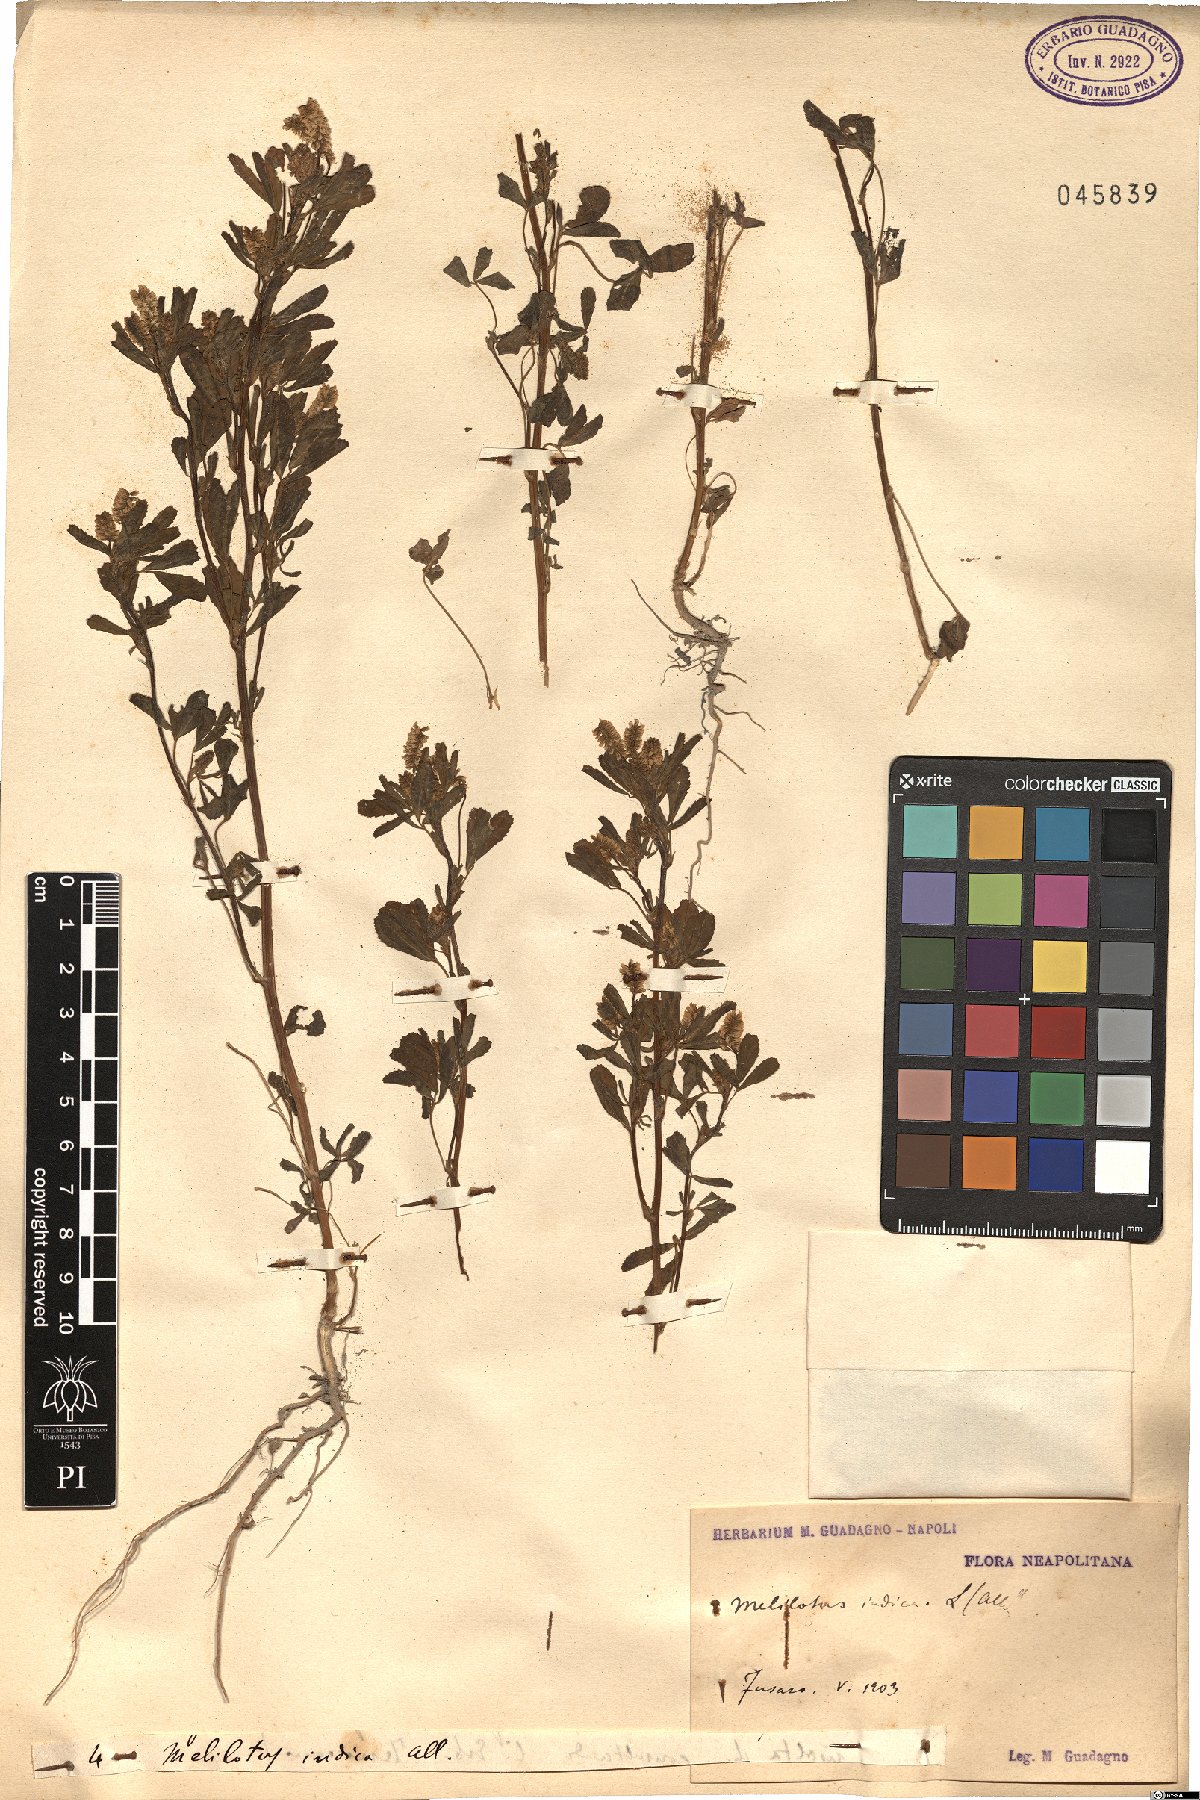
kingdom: Plantae
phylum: Tracheophyta
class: Magnoliopsida
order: Fabales
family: Fabaceae
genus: Melilotus
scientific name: Melilotus indicus
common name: Small melilot
